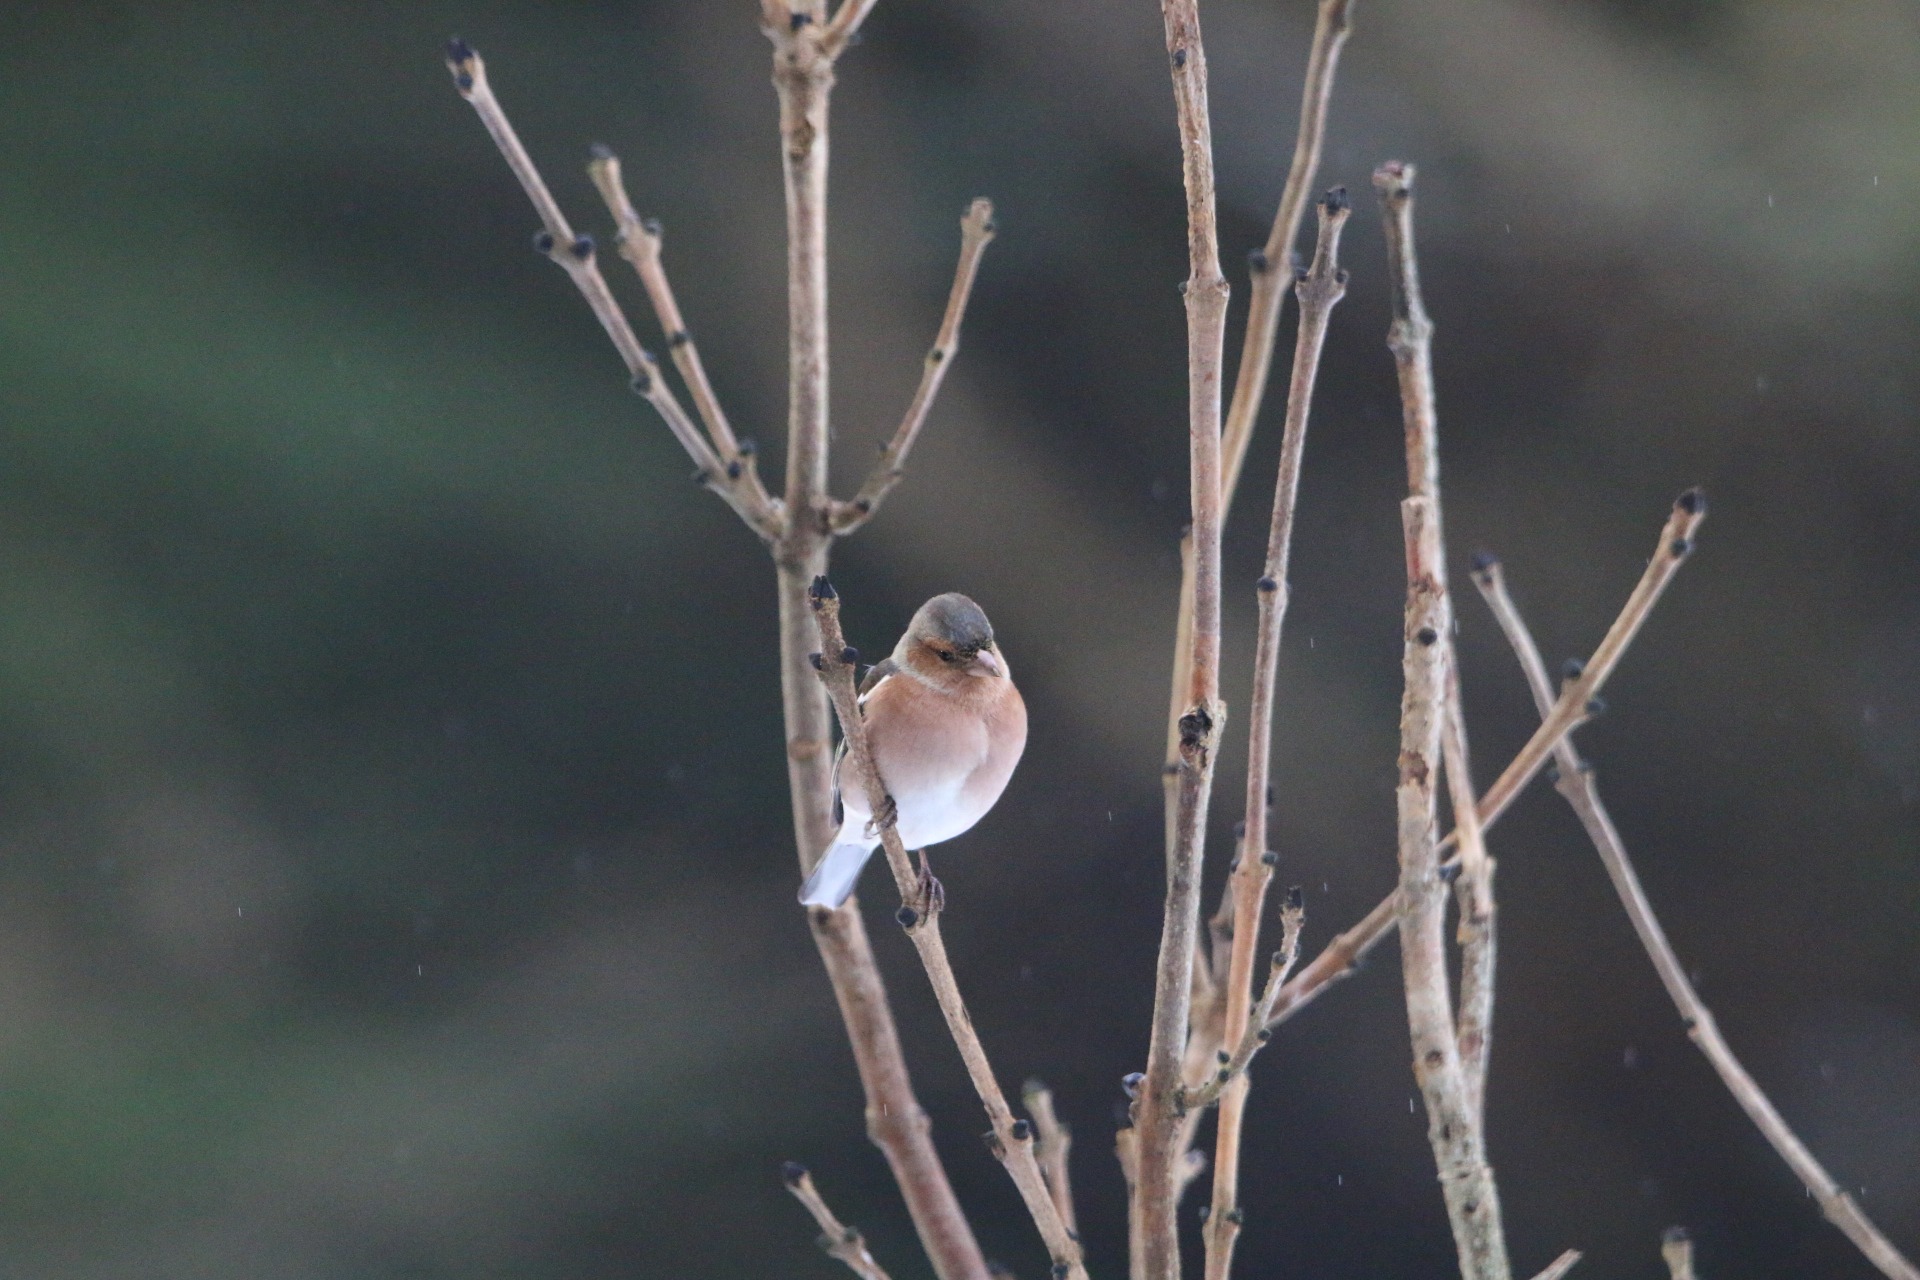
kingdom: Animalia
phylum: Chordata
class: Aves
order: Passeriformes
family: Fringillidae
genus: Fringilla
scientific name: Fringilla coelebs
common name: Bogfinke
